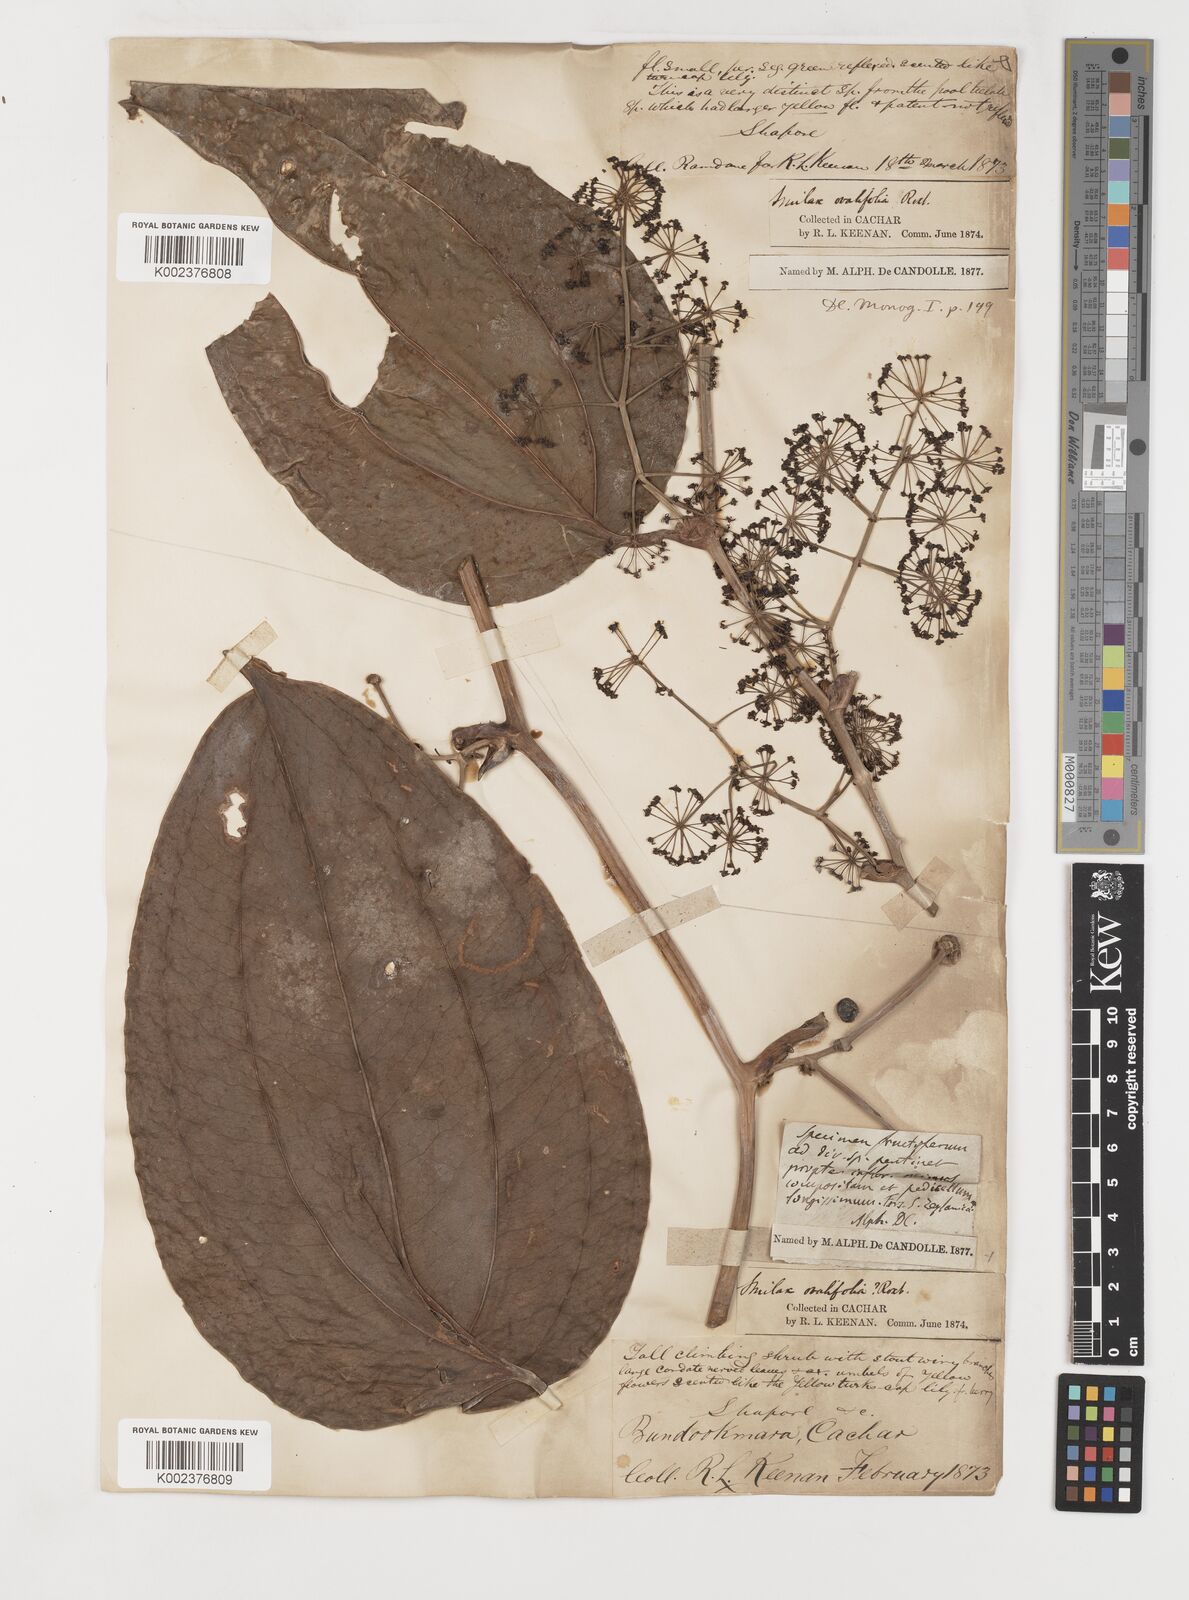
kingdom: Plantae
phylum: Tracheophyta
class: Liliopsida
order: Liliales
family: Smilacaceae
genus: Smilax
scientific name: Smilax prolifera
